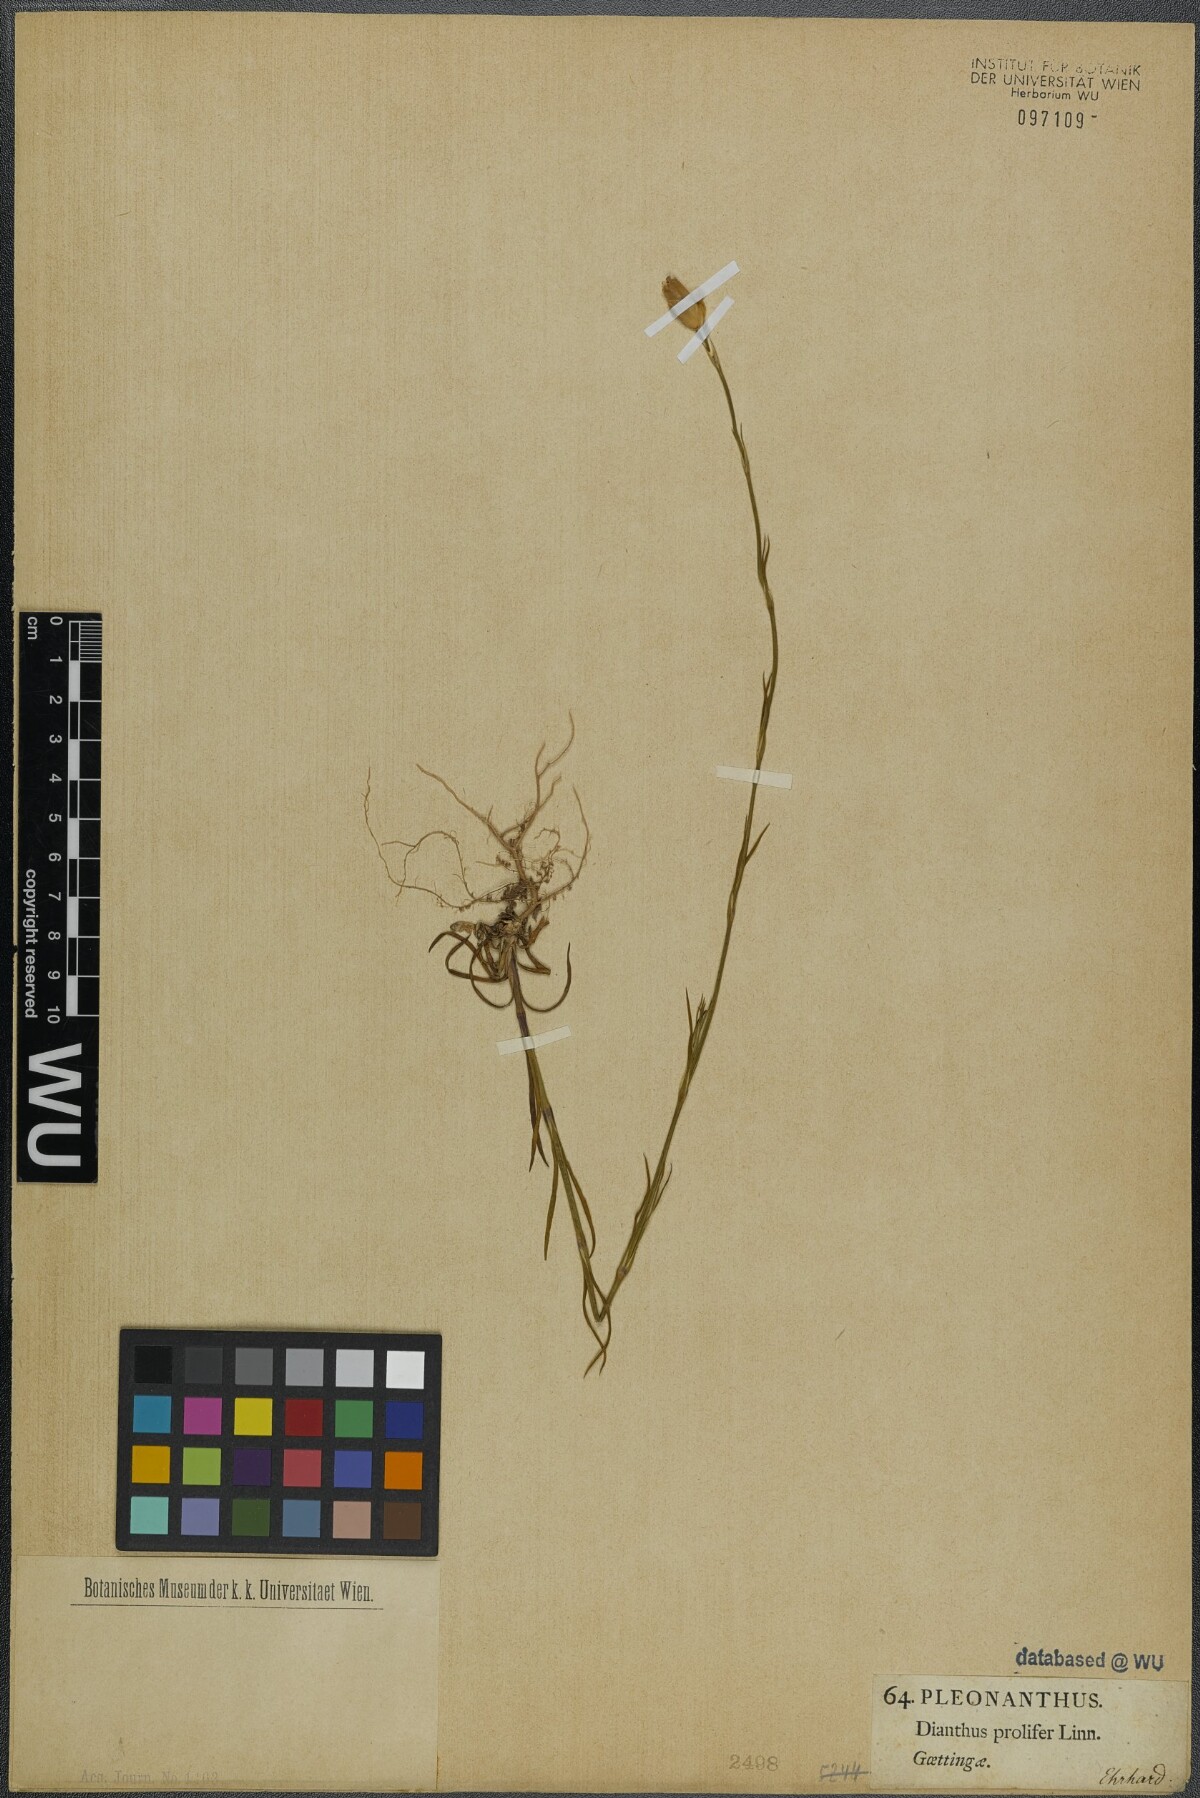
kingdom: Plantae
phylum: Tracheophyta
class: Magnoliopsida
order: Caryophyllales
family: Caryophyllaceae
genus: Petrorhagia
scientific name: Petrorhagia prolifera
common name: Proliferous pink
